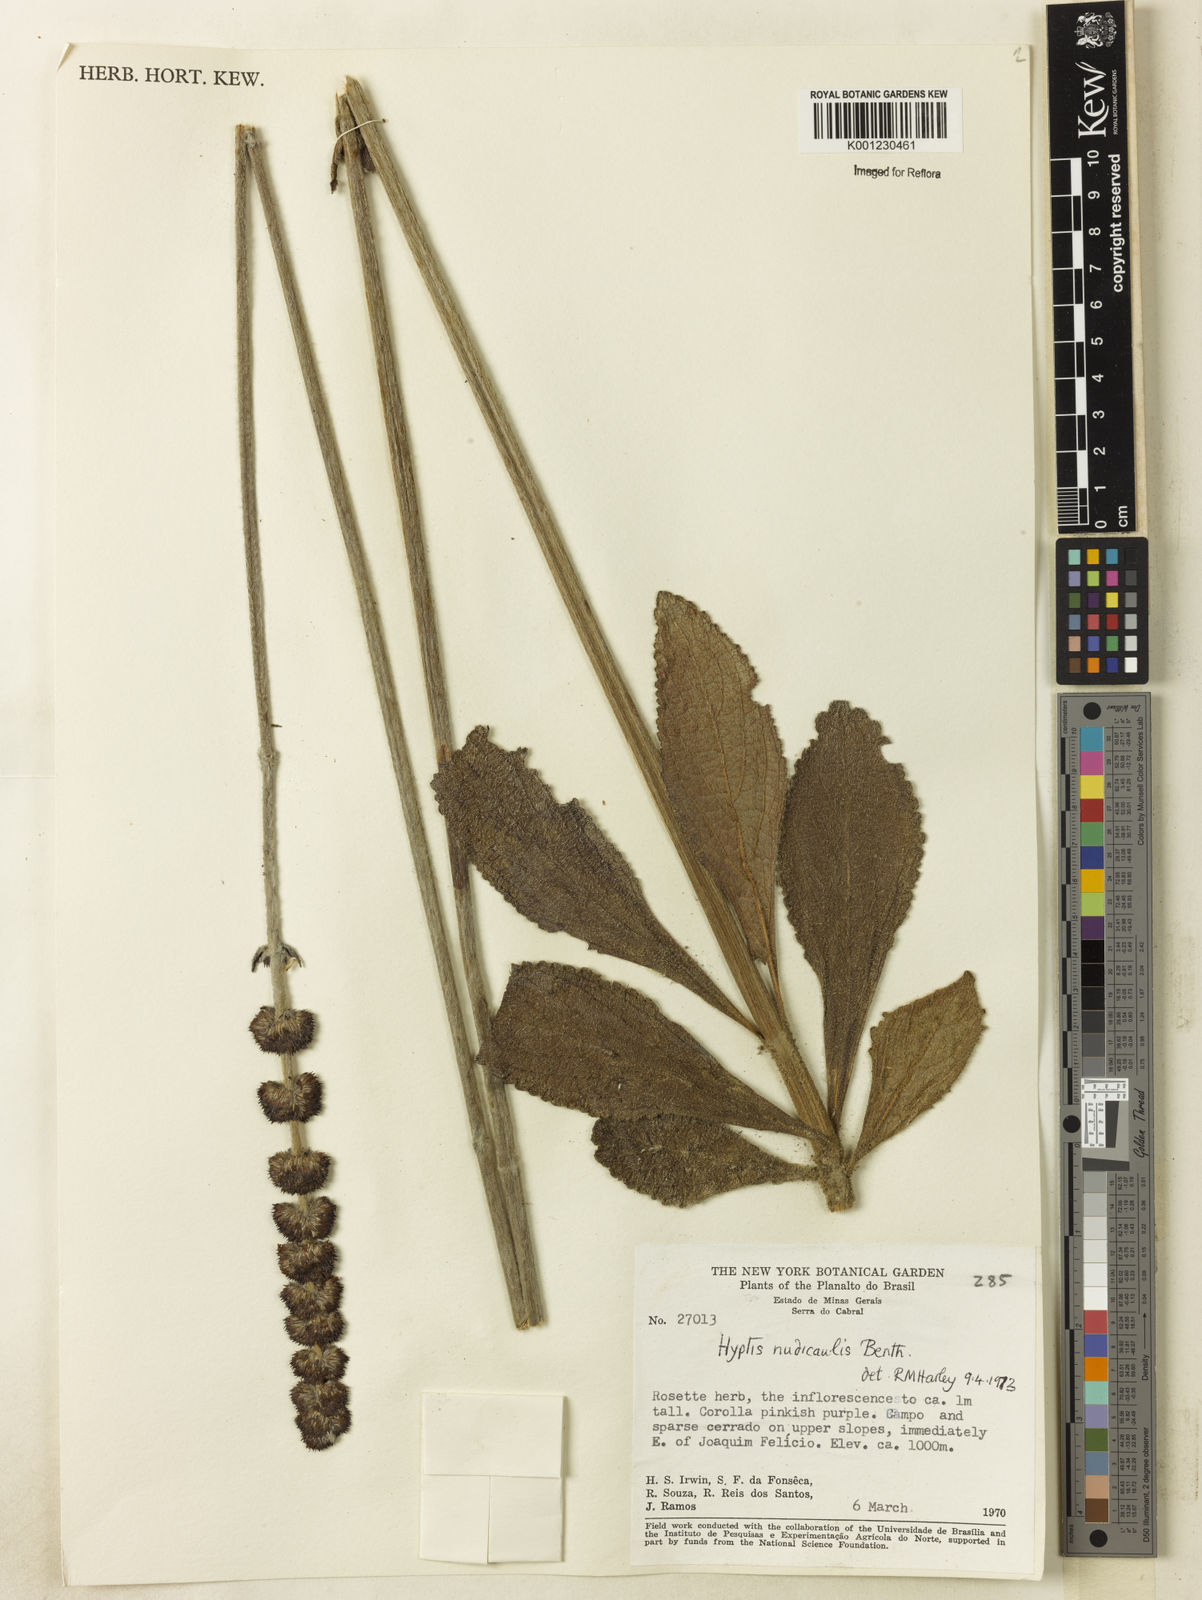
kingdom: Plantae
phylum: Tracheophyta
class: Magnoliopsida
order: Lamiales
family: Lamiaceae
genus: Hyptis
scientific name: Hyptis nudicaulis
